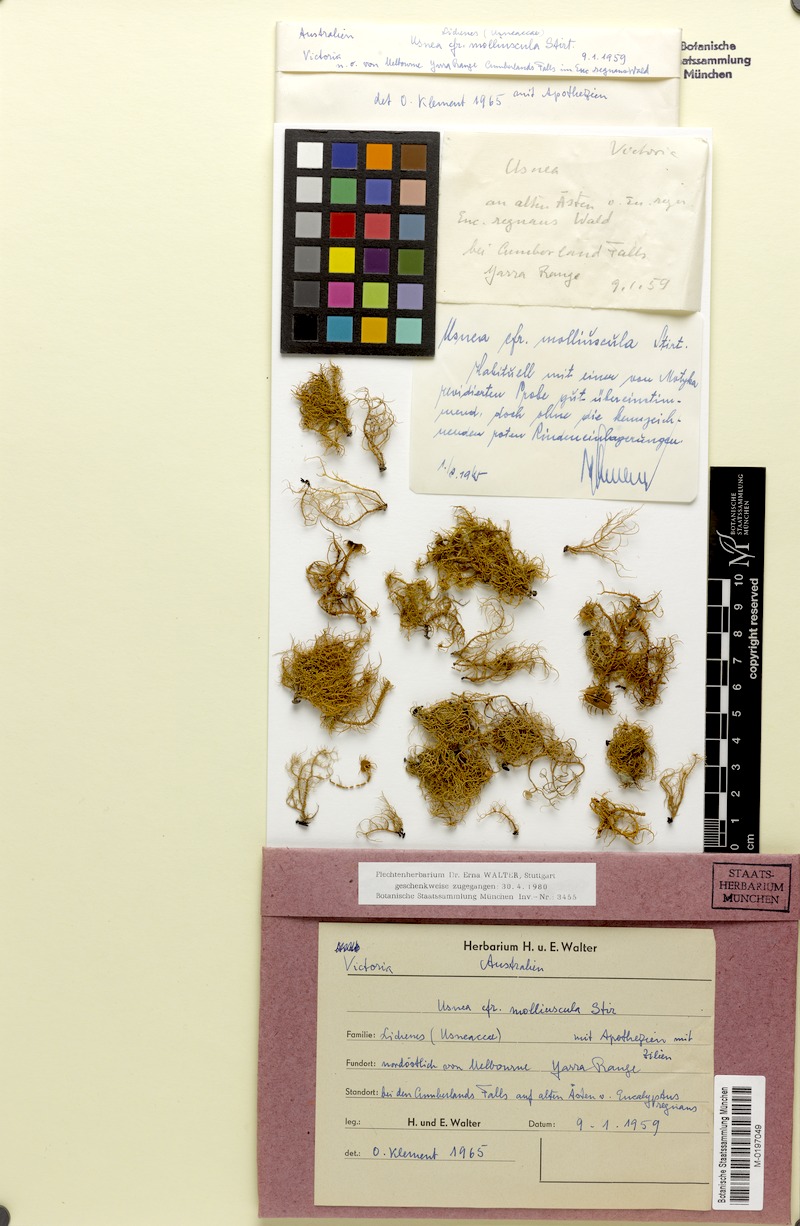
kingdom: Fungi
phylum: Ascomycota
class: Lecanoromycetes
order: Lecanorales
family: Parmeliaceae
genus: Usnea
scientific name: Usnea molliuscula
